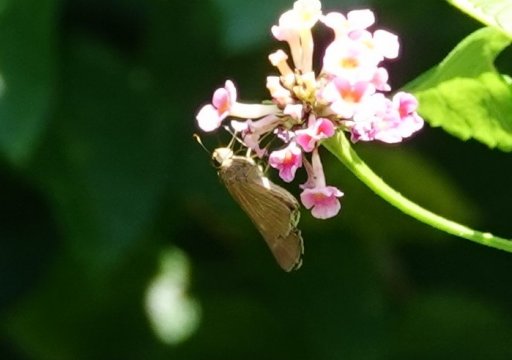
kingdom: Animalia
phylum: Arthropoda
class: Insecta
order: Lepidoptera
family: Hesperiidae
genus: Panoquina
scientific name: Panoquina ocola
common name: Ocola Skipper
